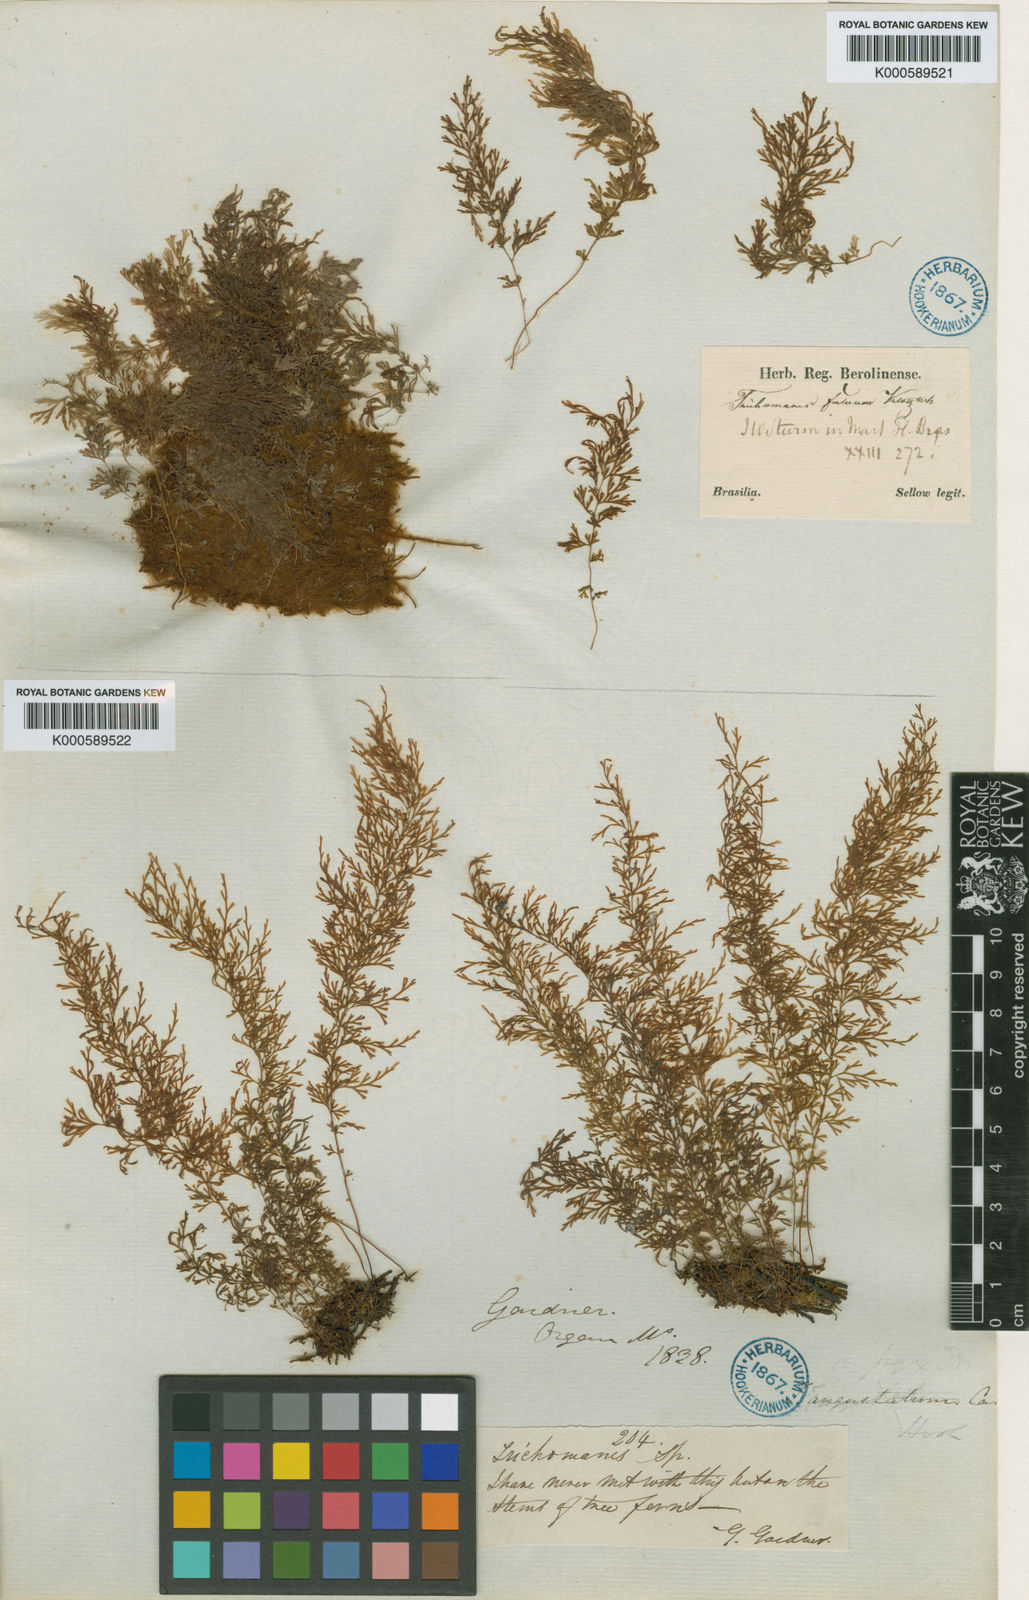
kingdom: Plantae
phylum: Tracheophyta
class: Polypodiopsida
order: Hymenophyllales
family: Hymenophyllaceae
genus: Polyphlebium
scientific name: Polyphlebium angustatum
